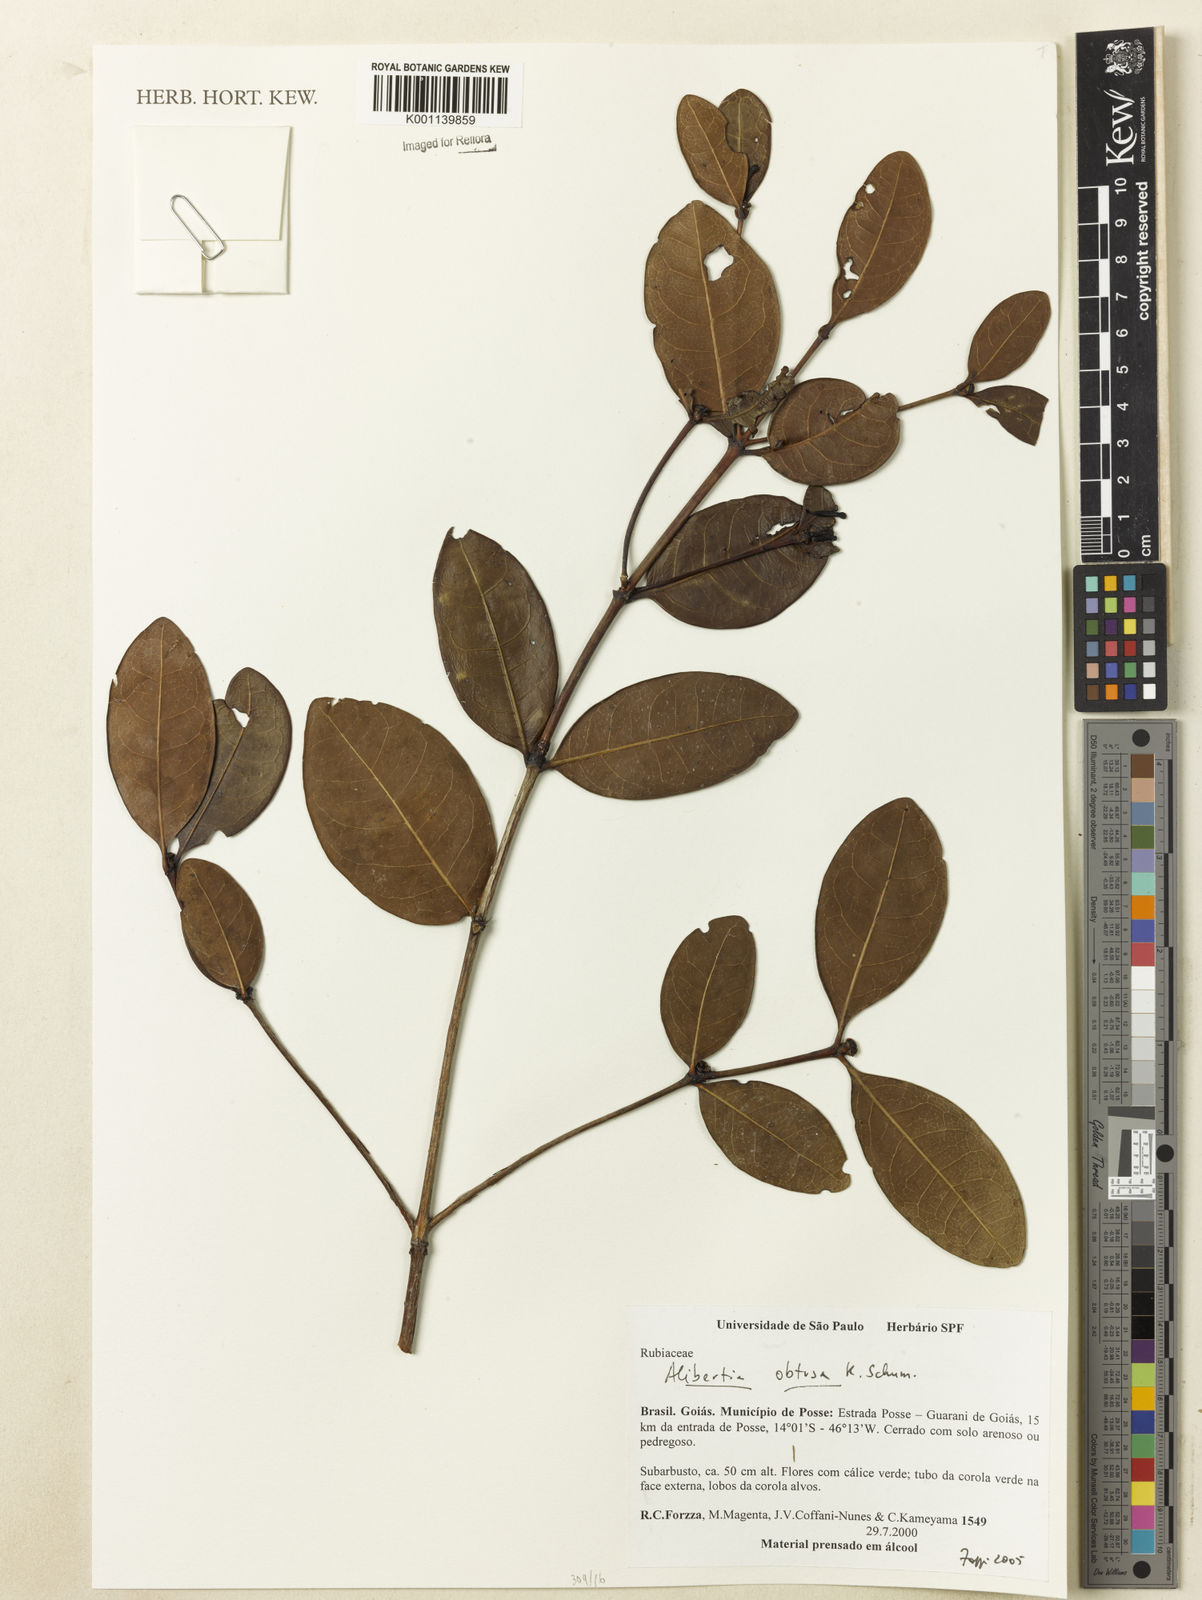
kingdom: Plantae
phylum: Tracheophyta
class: Magnoliopsida
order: Gentianales
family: Rubiaceae
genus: Cordiera
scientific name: Cordiera obtusa
